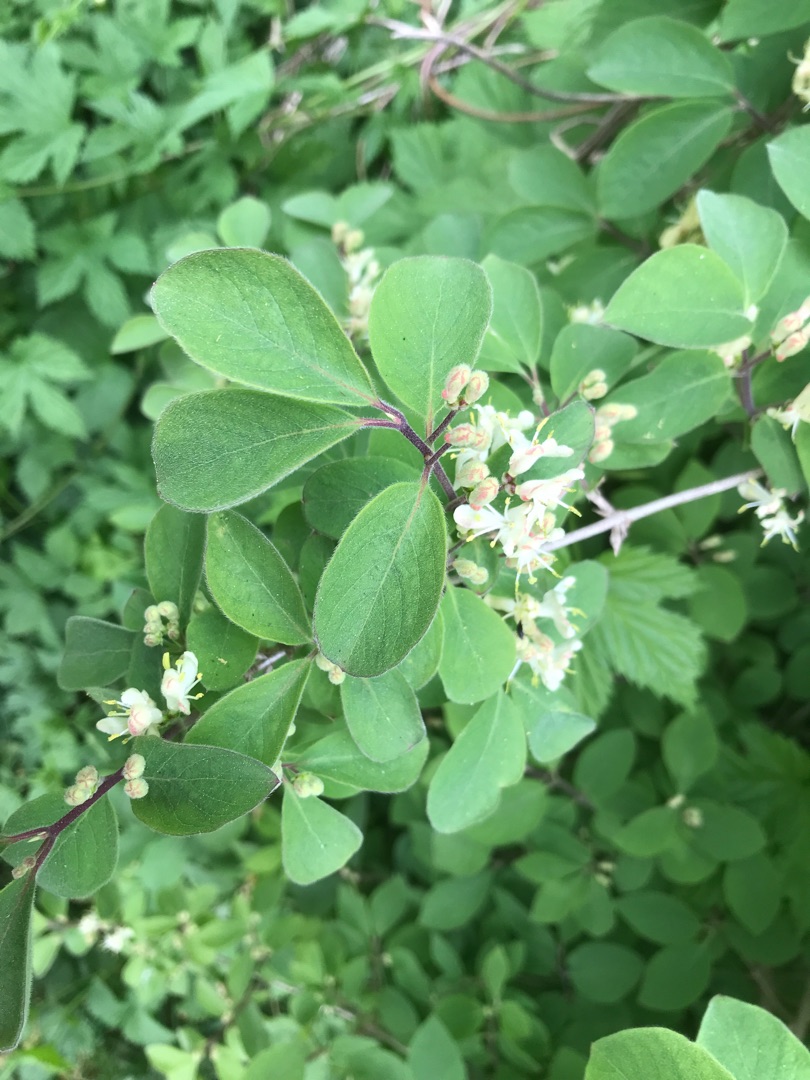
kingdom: Plantae
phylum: Tracheophyta
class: Magnoliopsida
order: Dipsacales
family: Caprifoliaceae
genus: Lonicera
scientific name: Lonicera xylosteum
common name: Dunet gedeblad
